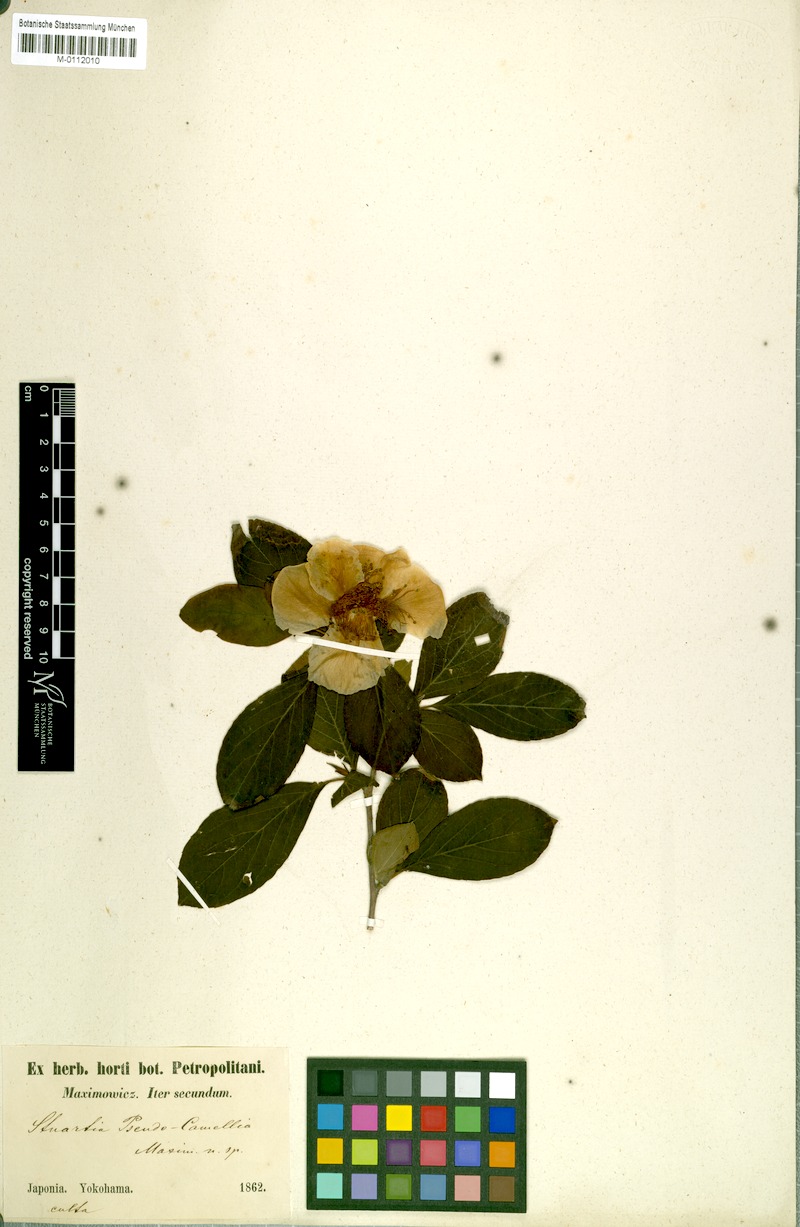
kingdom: Plantae
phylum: Tracheophyta
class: Magnoliopsida
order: Ericales
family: Theaceae
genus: Stewartia
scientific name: Stewartia pseudocamellia
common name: Japanese stewartia
